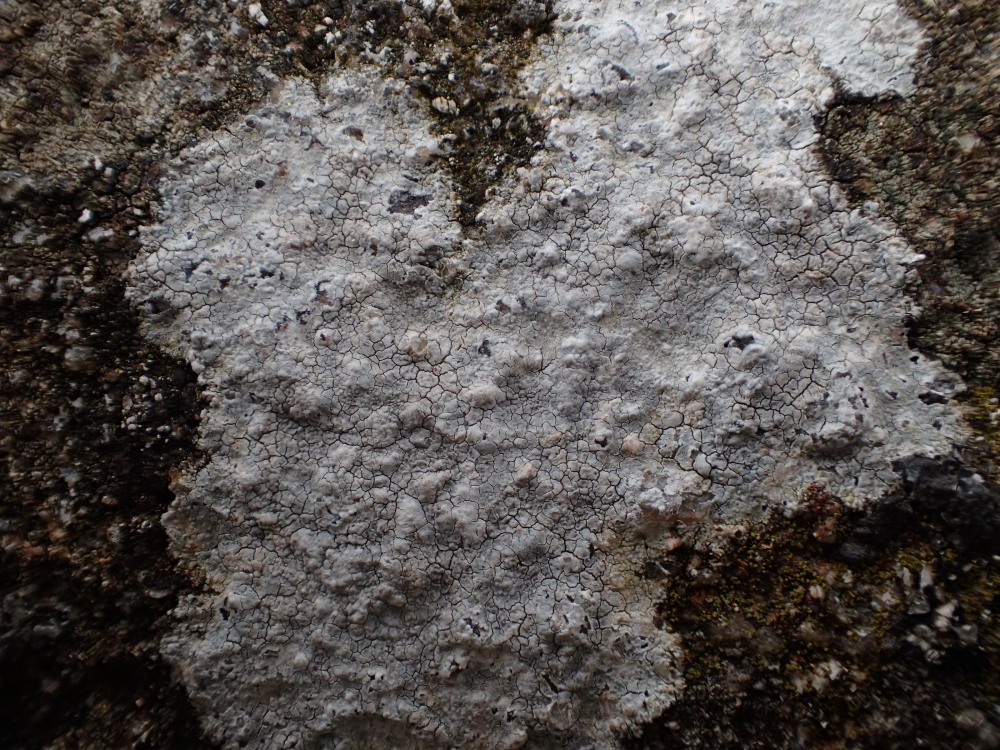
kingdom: Fungi
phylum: Ascomycota
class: Lecanoromycetes
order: Lecanorales
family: Lecanoraceae
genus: Glaucomaria
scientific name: Glaucomaria rupicola
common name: stengærde-kantskivelav
